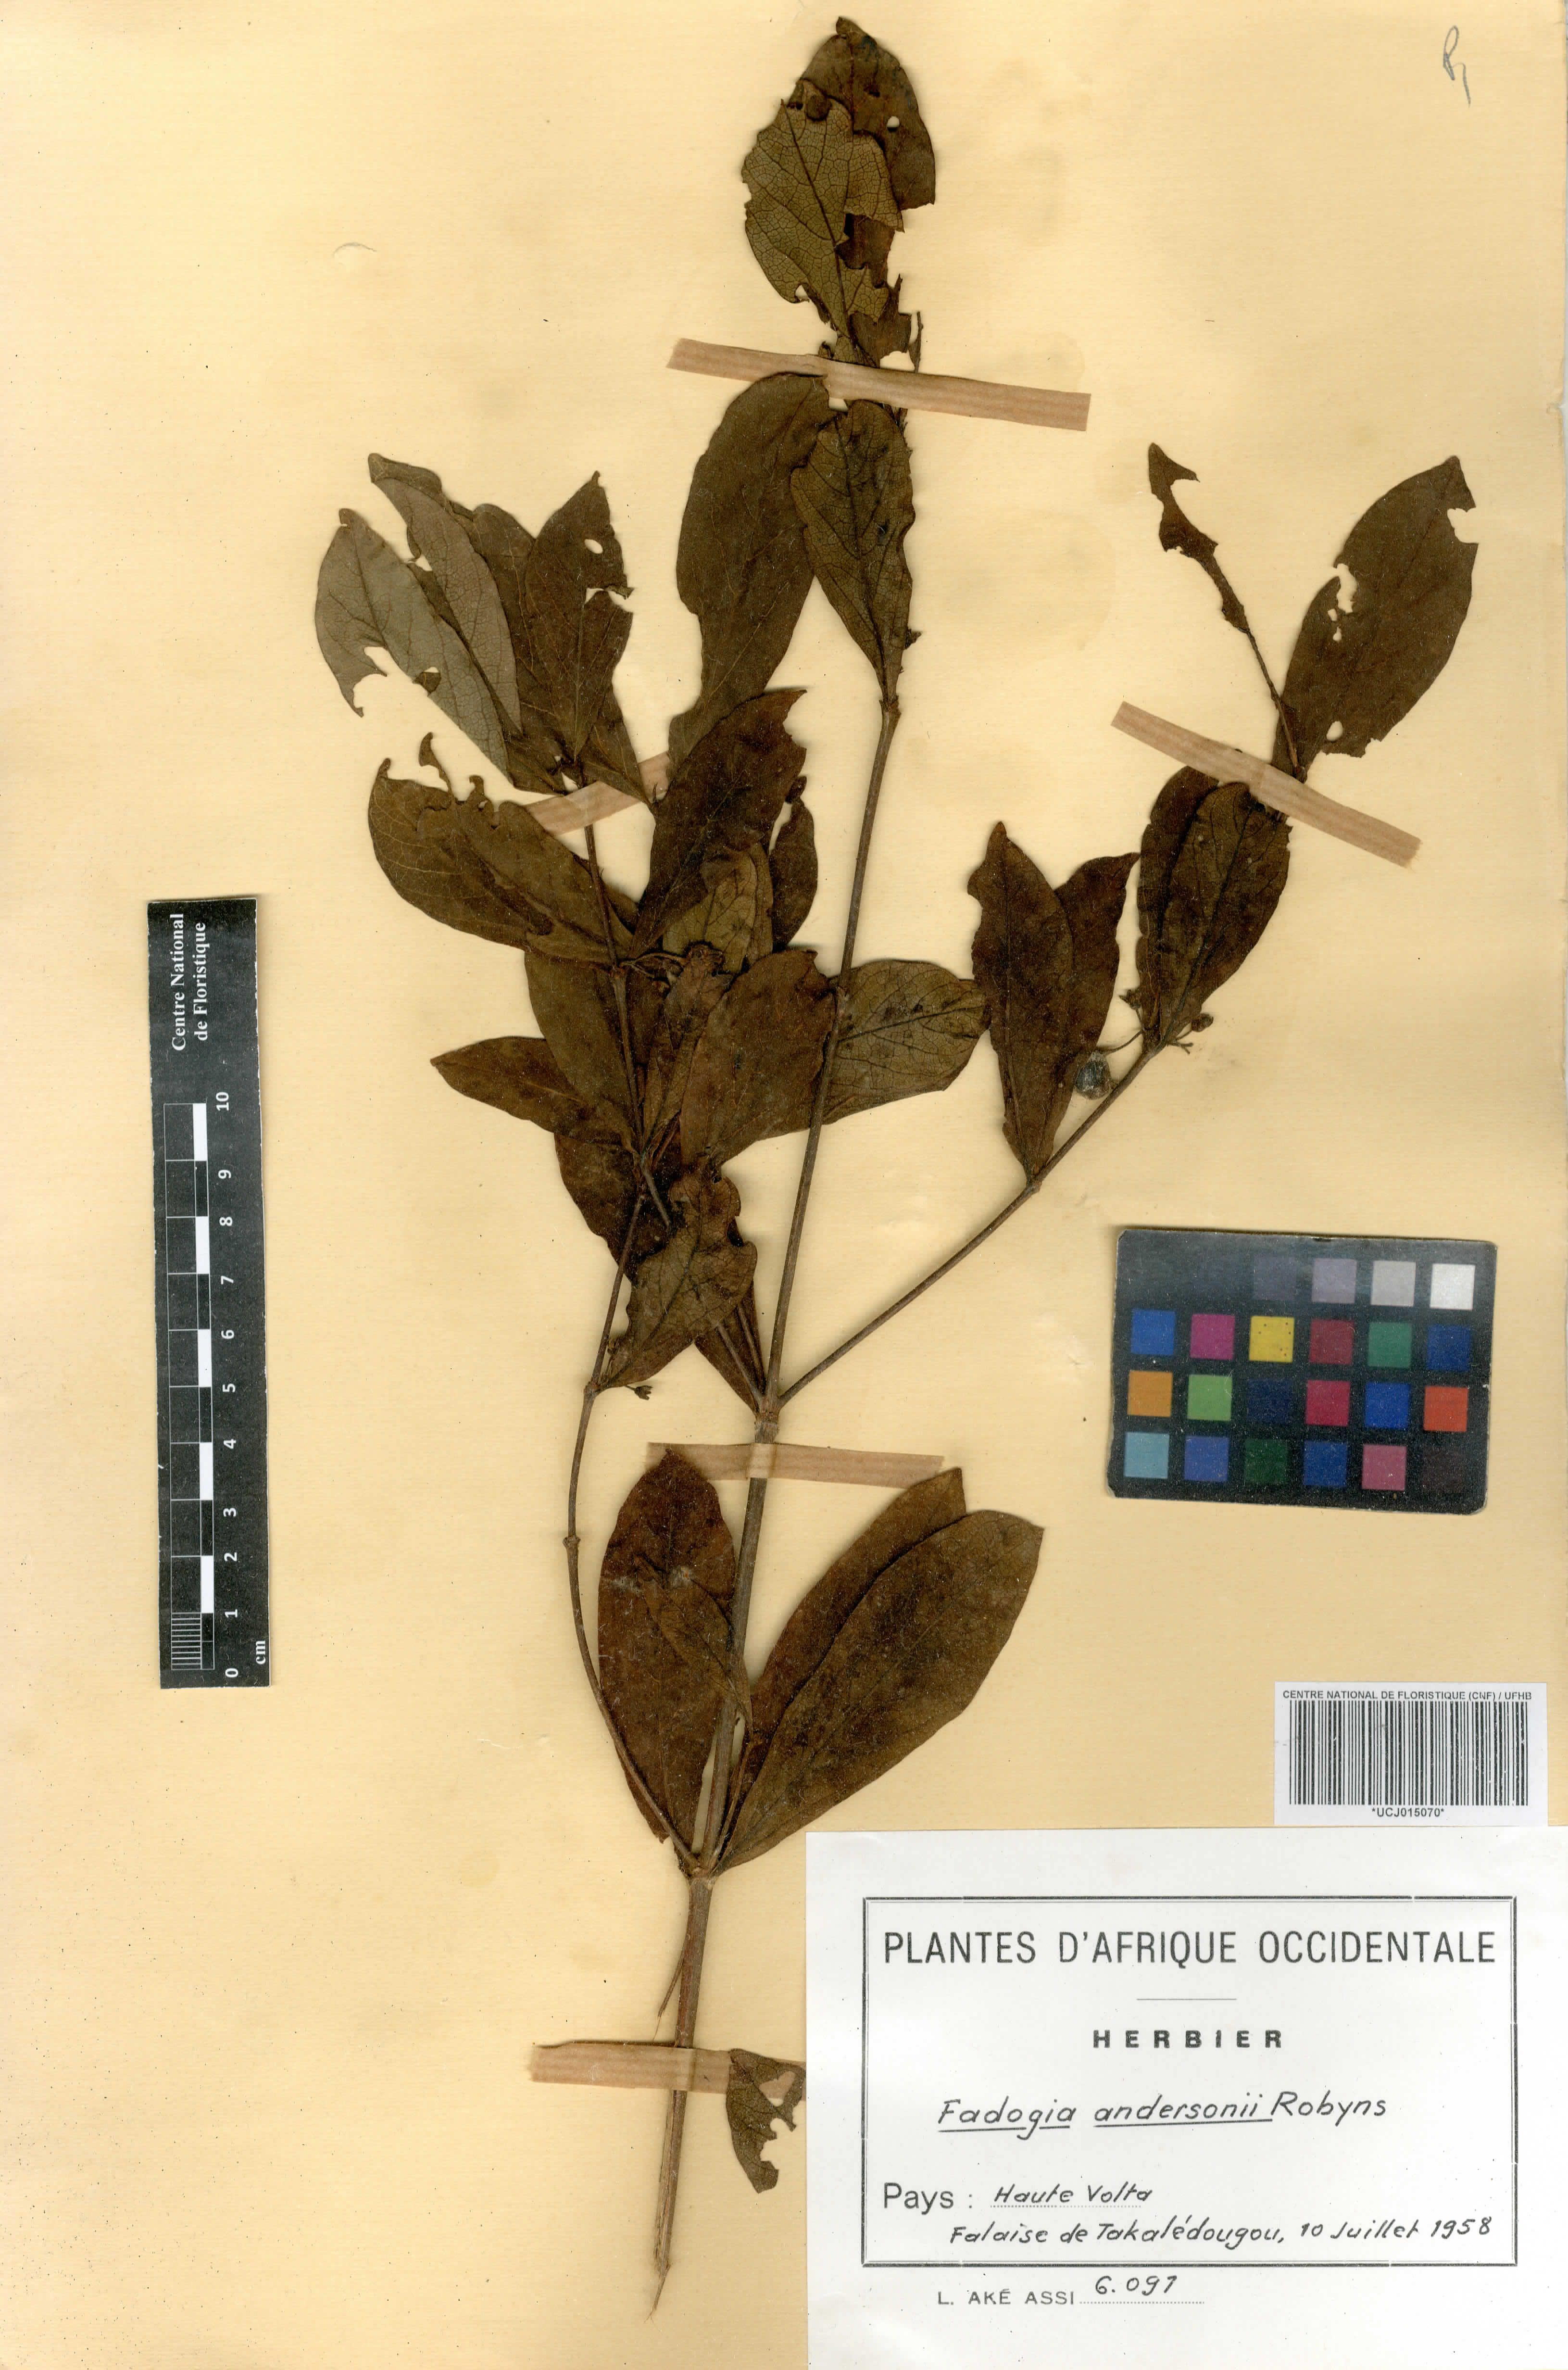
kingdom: Plantae
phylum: Tracheophyta
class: Magnoliopsida
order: Gentianales
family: Rubiaceae
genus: Fadogia
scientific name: Fadogia andersonii
